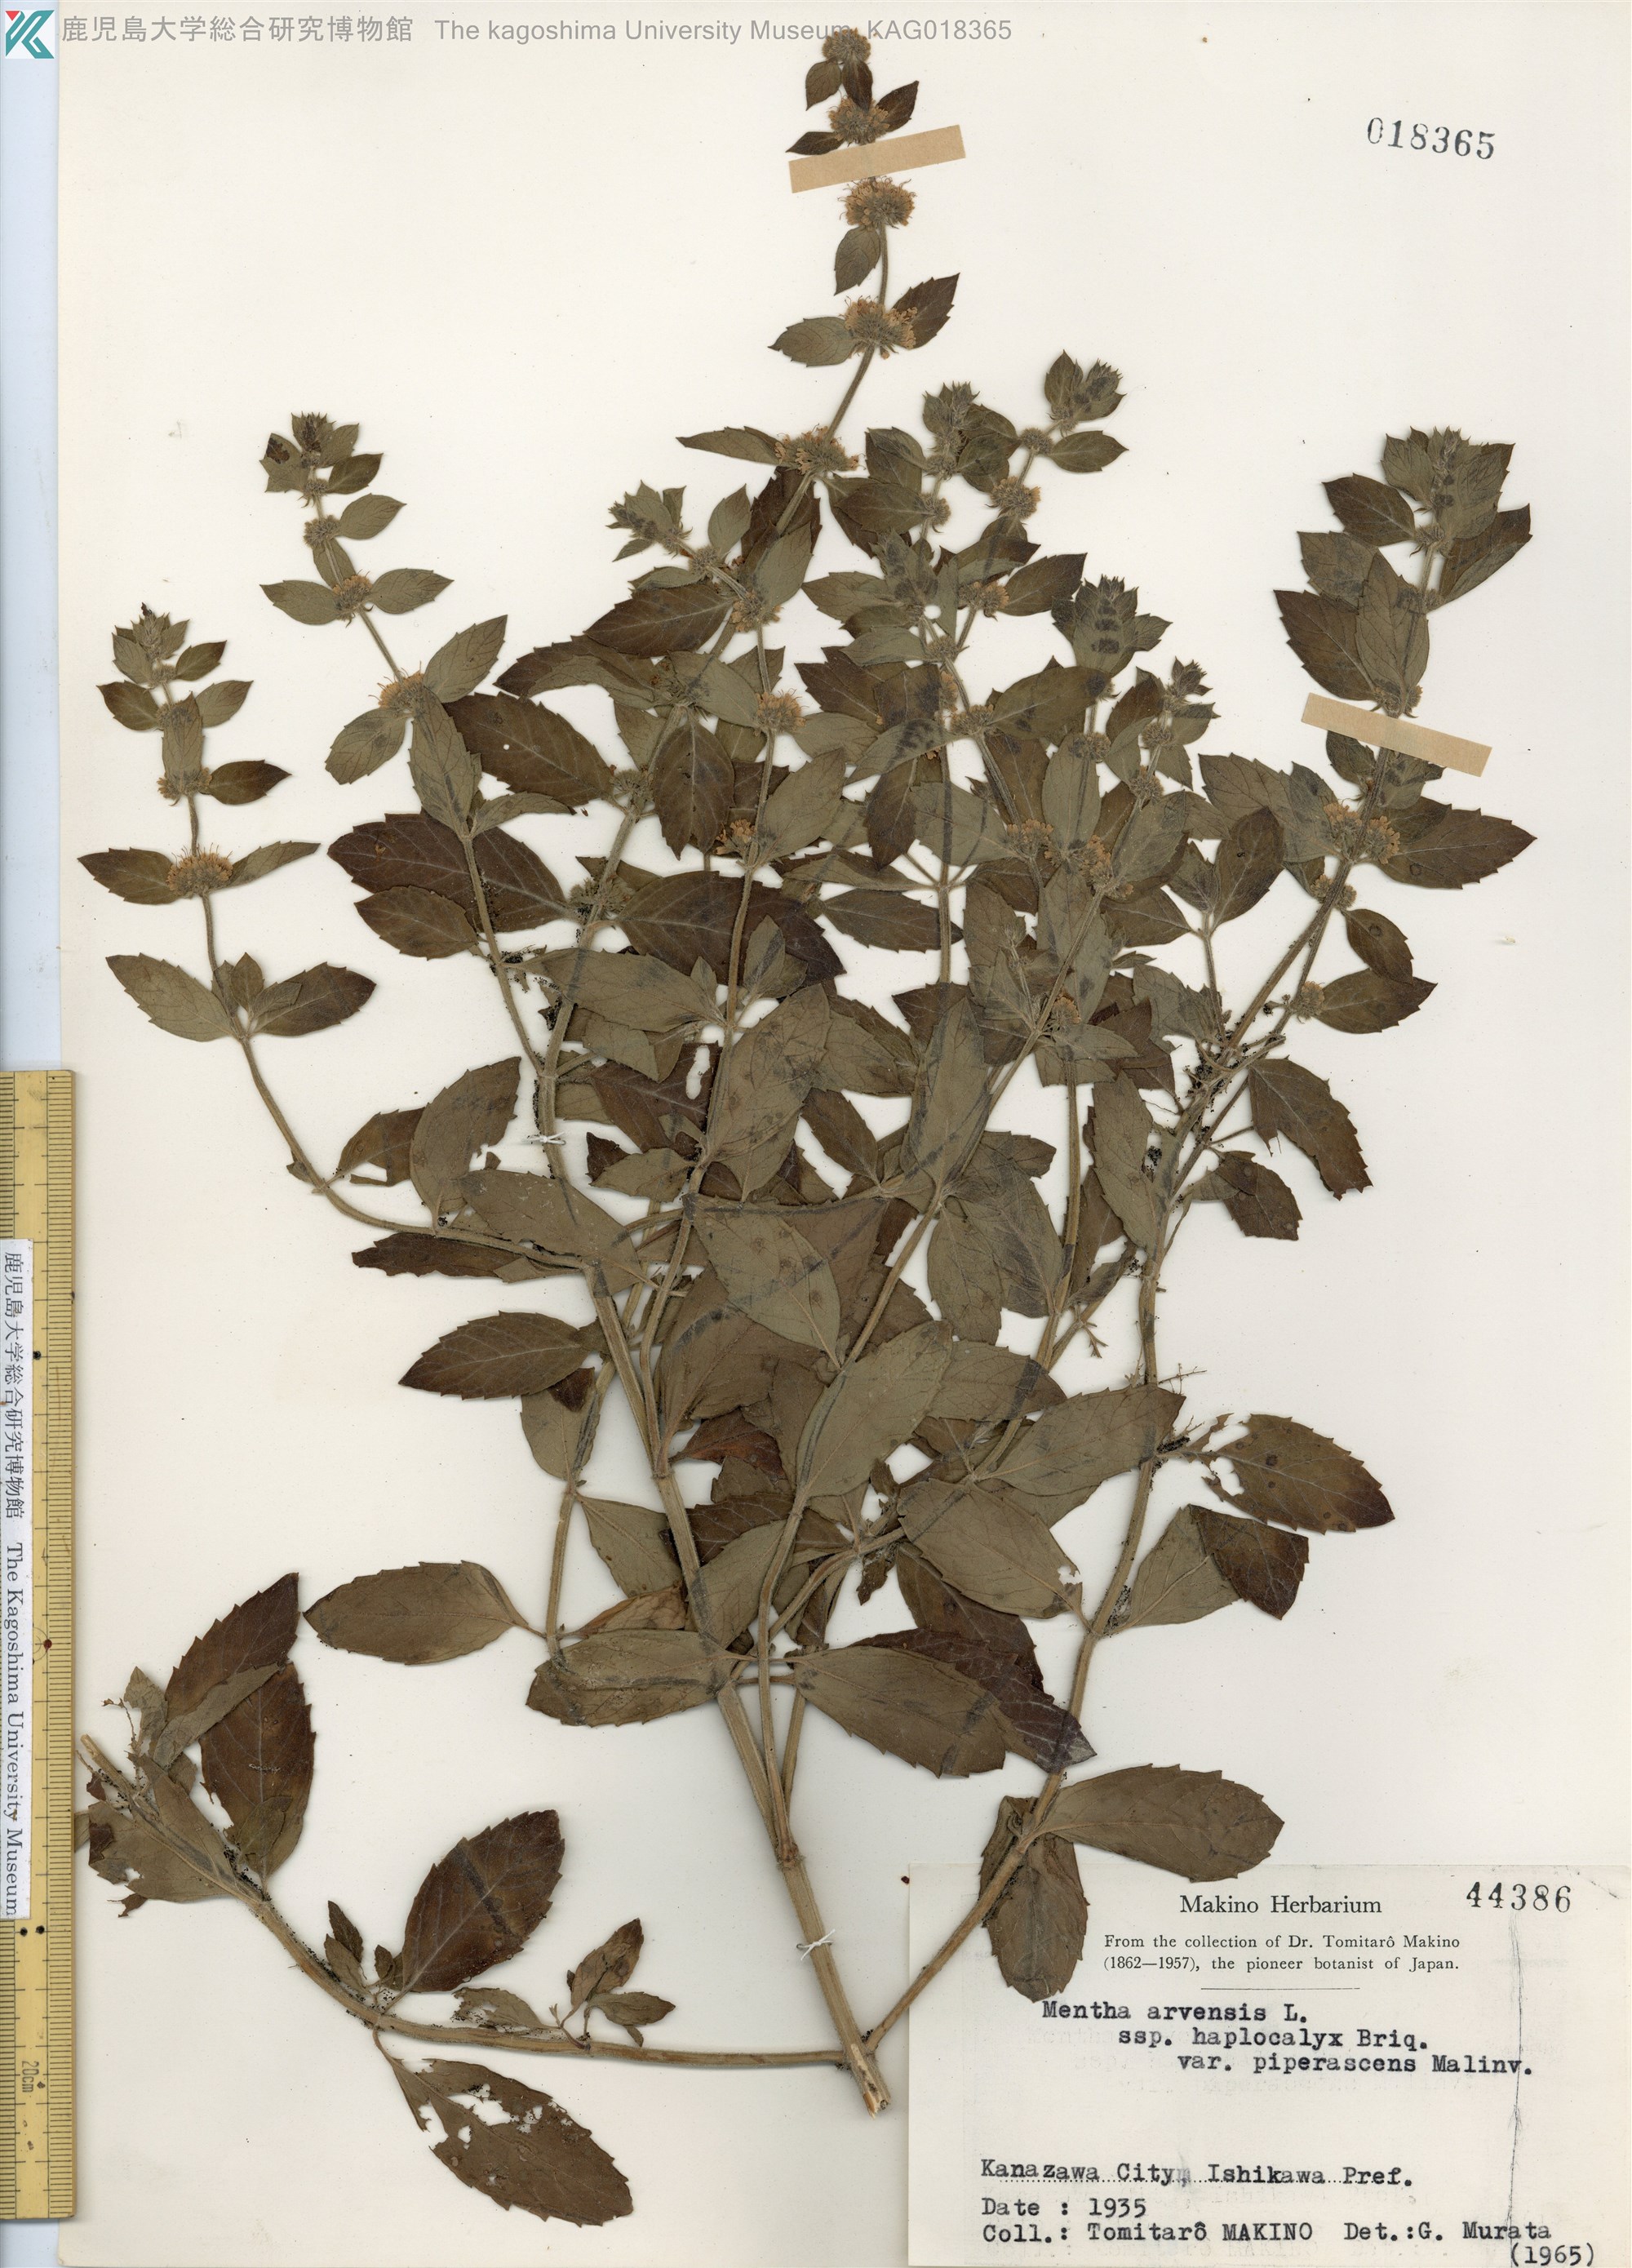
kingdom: Plantae
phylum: Tracheophyta
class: Magnoliopsida
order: Lamiales
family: Lamiaceae
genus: Mentha
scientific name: Mentha canadensis
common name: ハッカ
